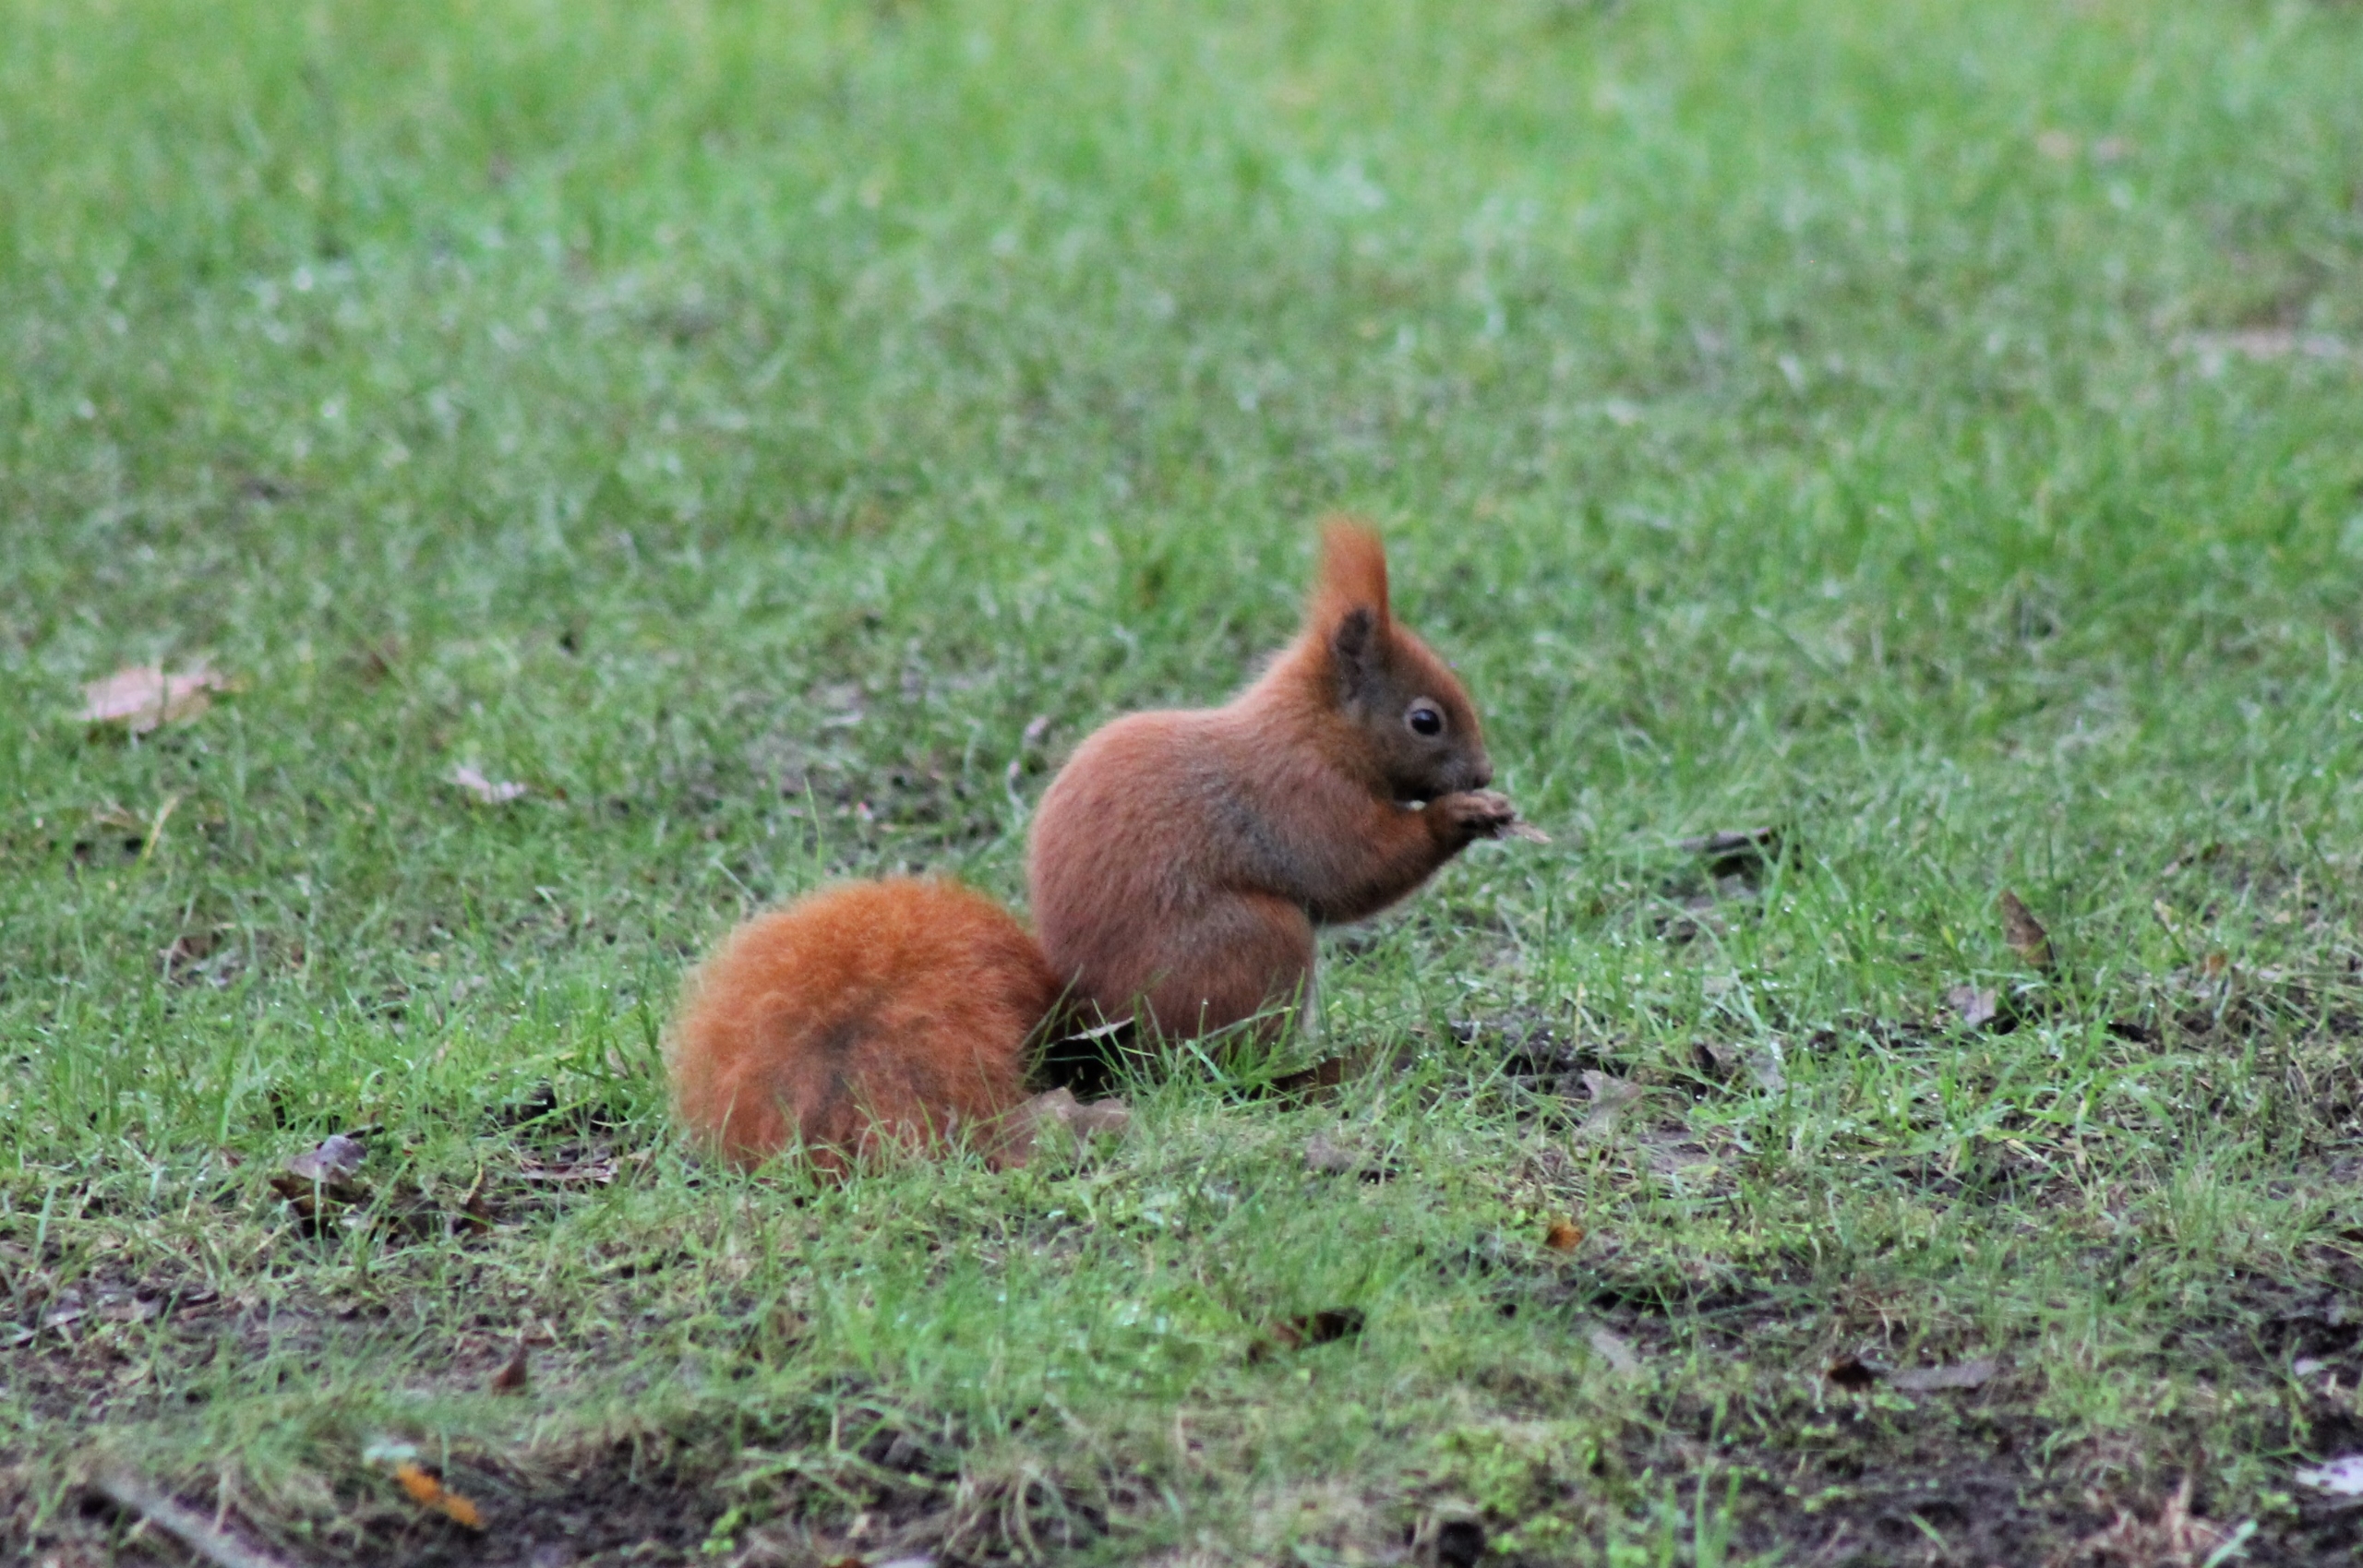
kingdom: Animalia
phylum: Chordata
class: Mammalia
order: Rodentia
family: Sciuridae
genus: Sciurus
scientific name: Sciurus vulgaris
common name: Egern
